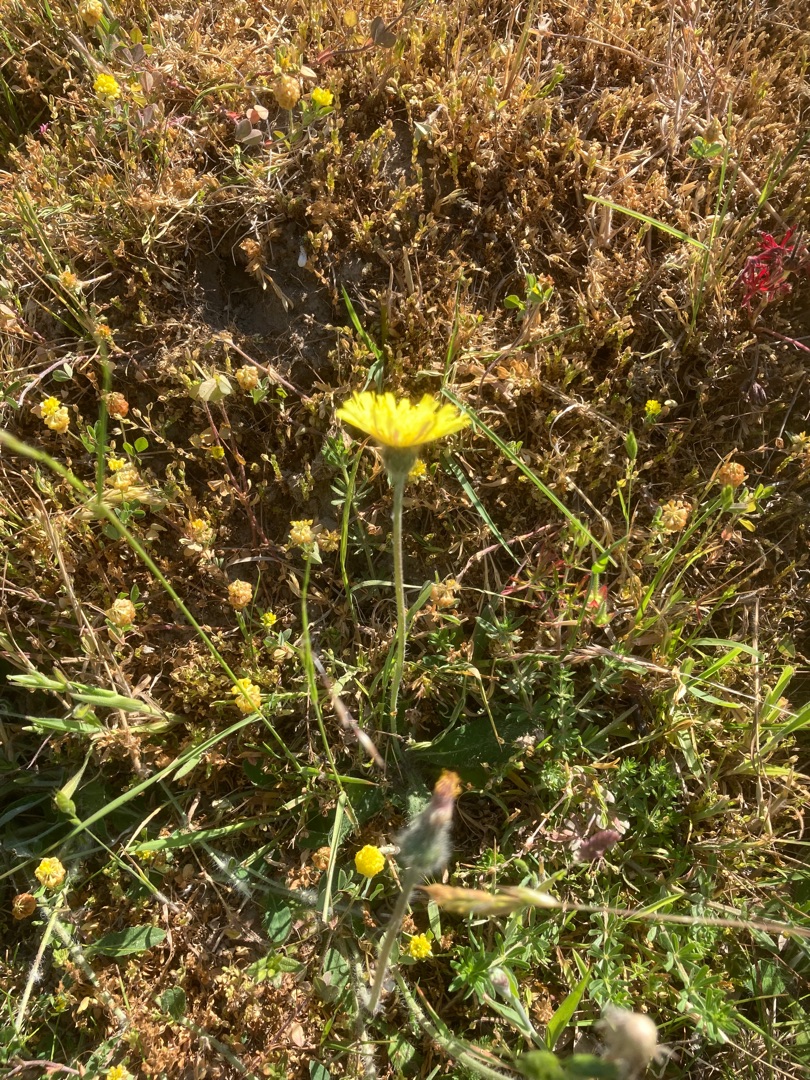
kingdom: Plantae
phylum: Tracheophyta
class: Magnoliopsida
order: Asterales
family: Asteraceae
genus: Pilosella
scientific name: Pilosella officinarum
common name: Håret høgeurt
